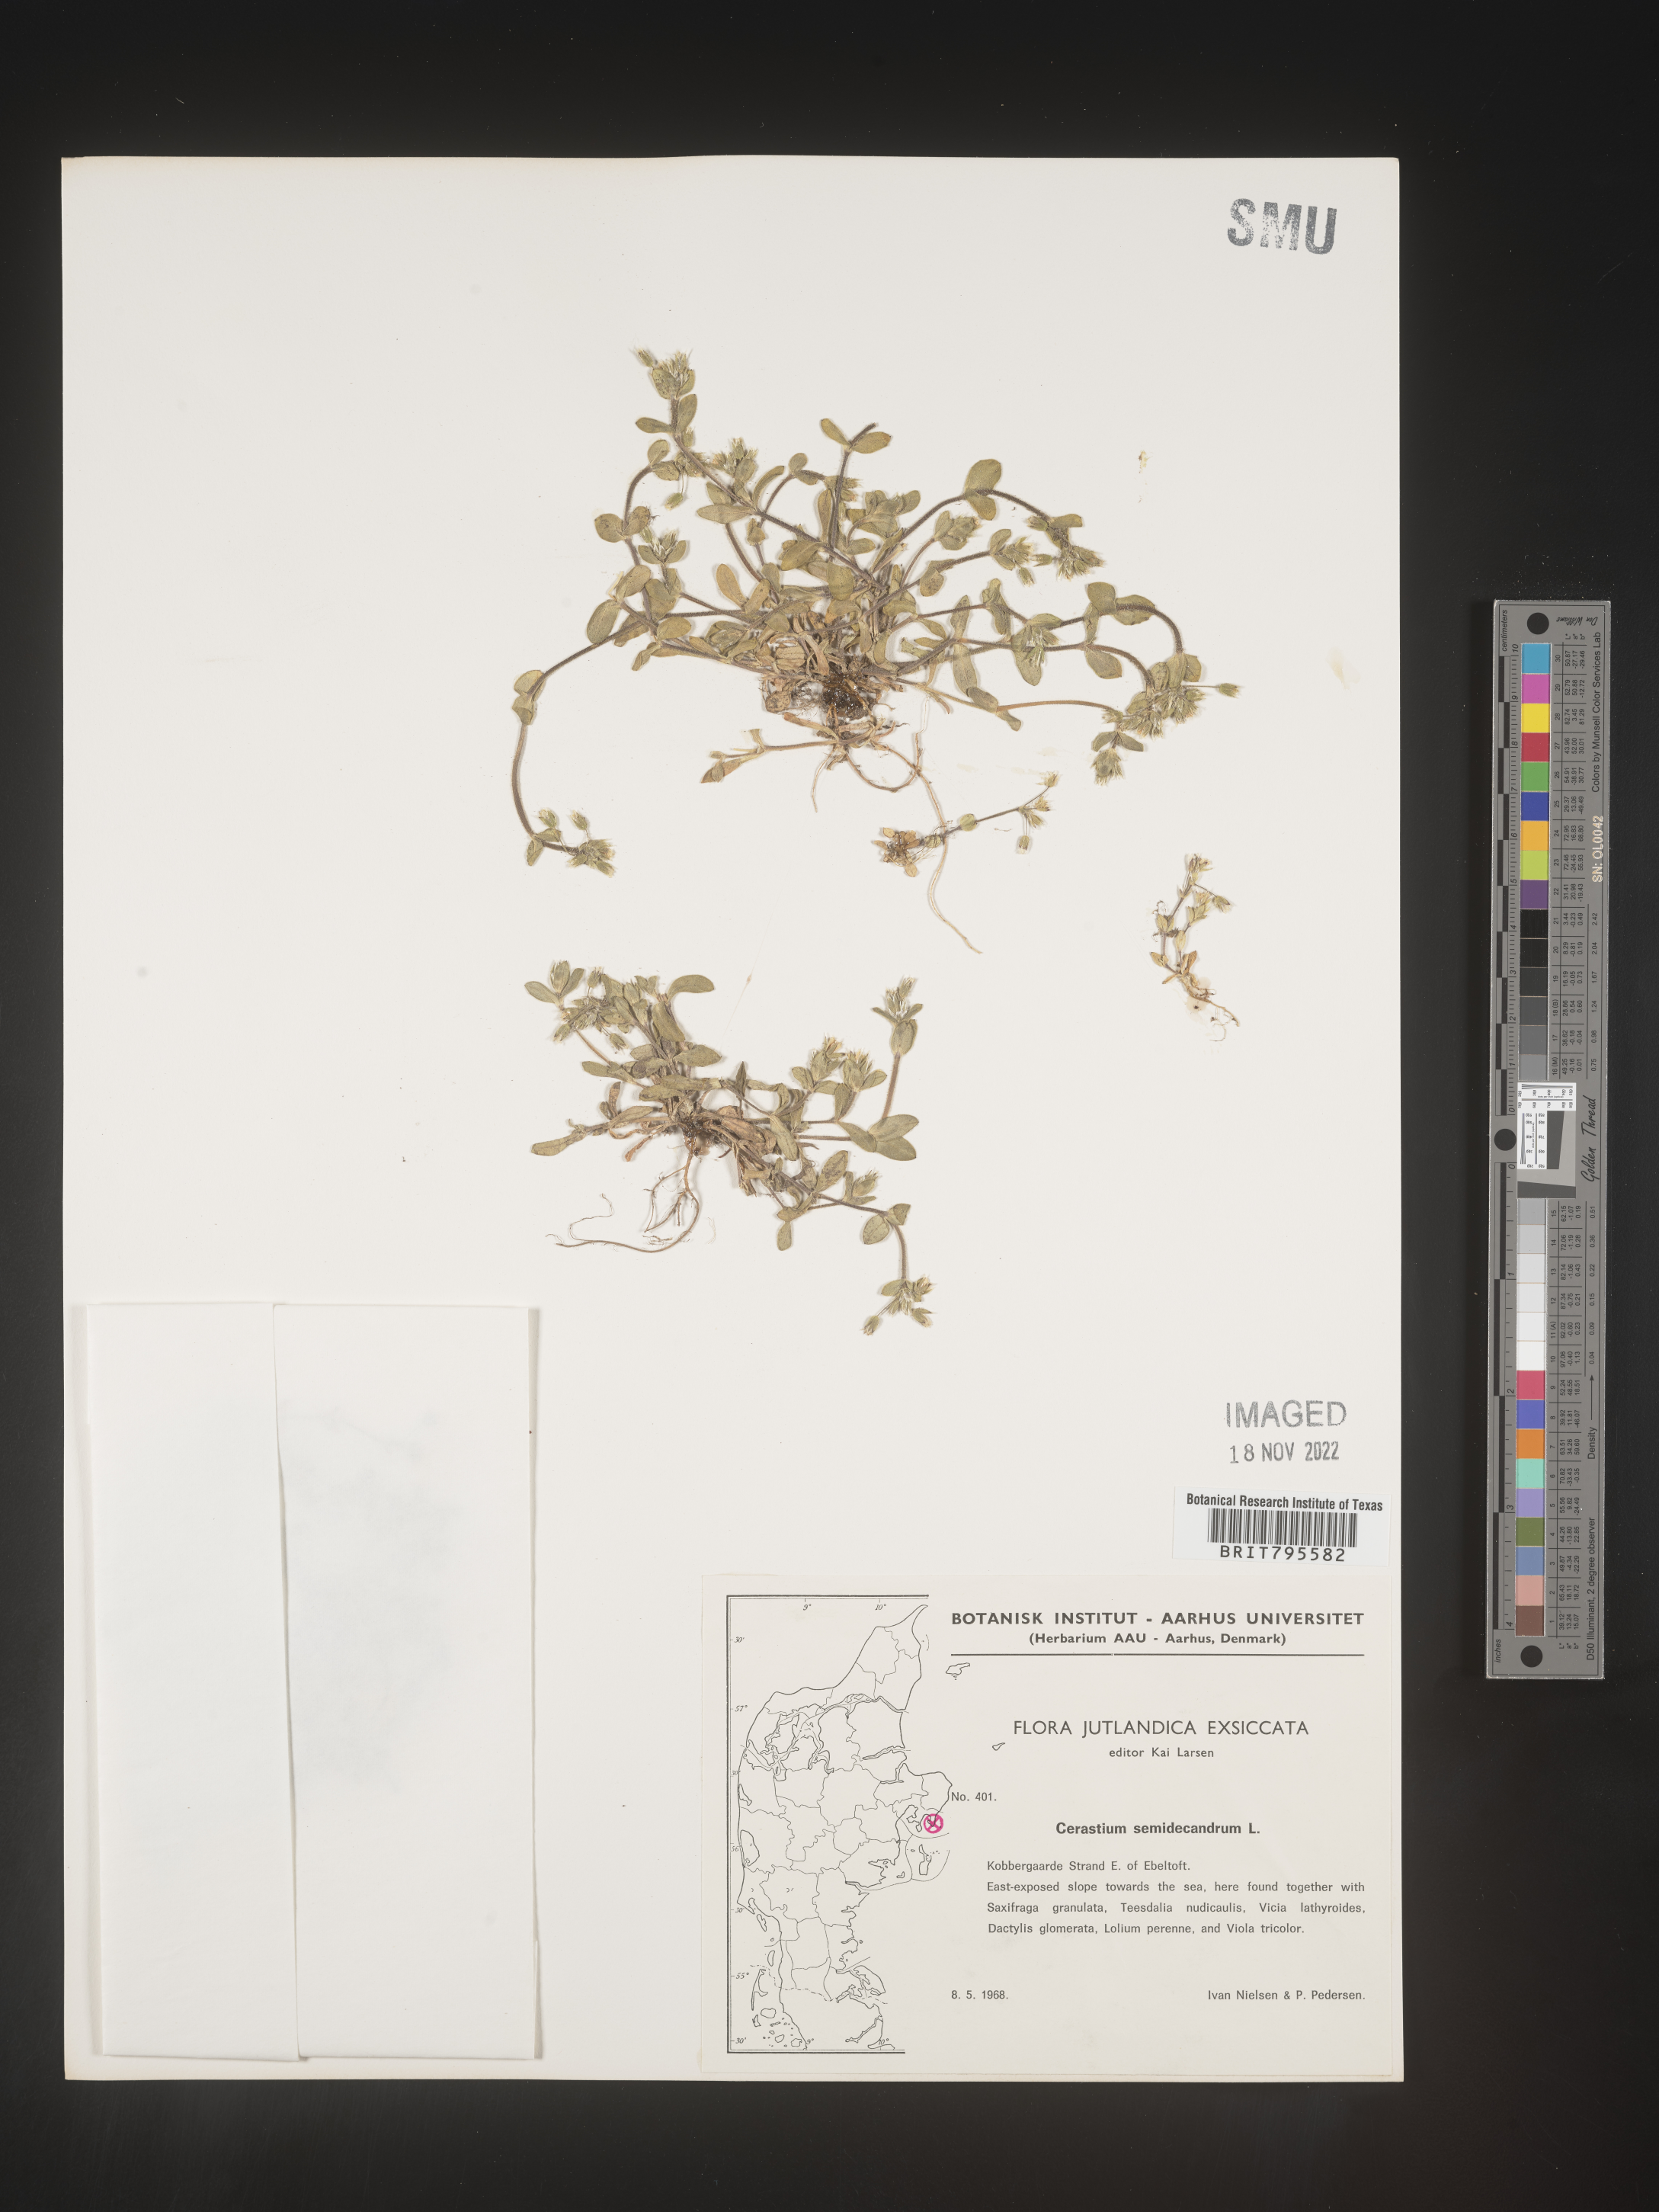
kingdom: Plantae
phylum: Tracheophyta
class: Magnoliopsida
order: Caryophyllales
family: Caryophyllaceae
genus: Cerastium
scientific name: Cerastium
